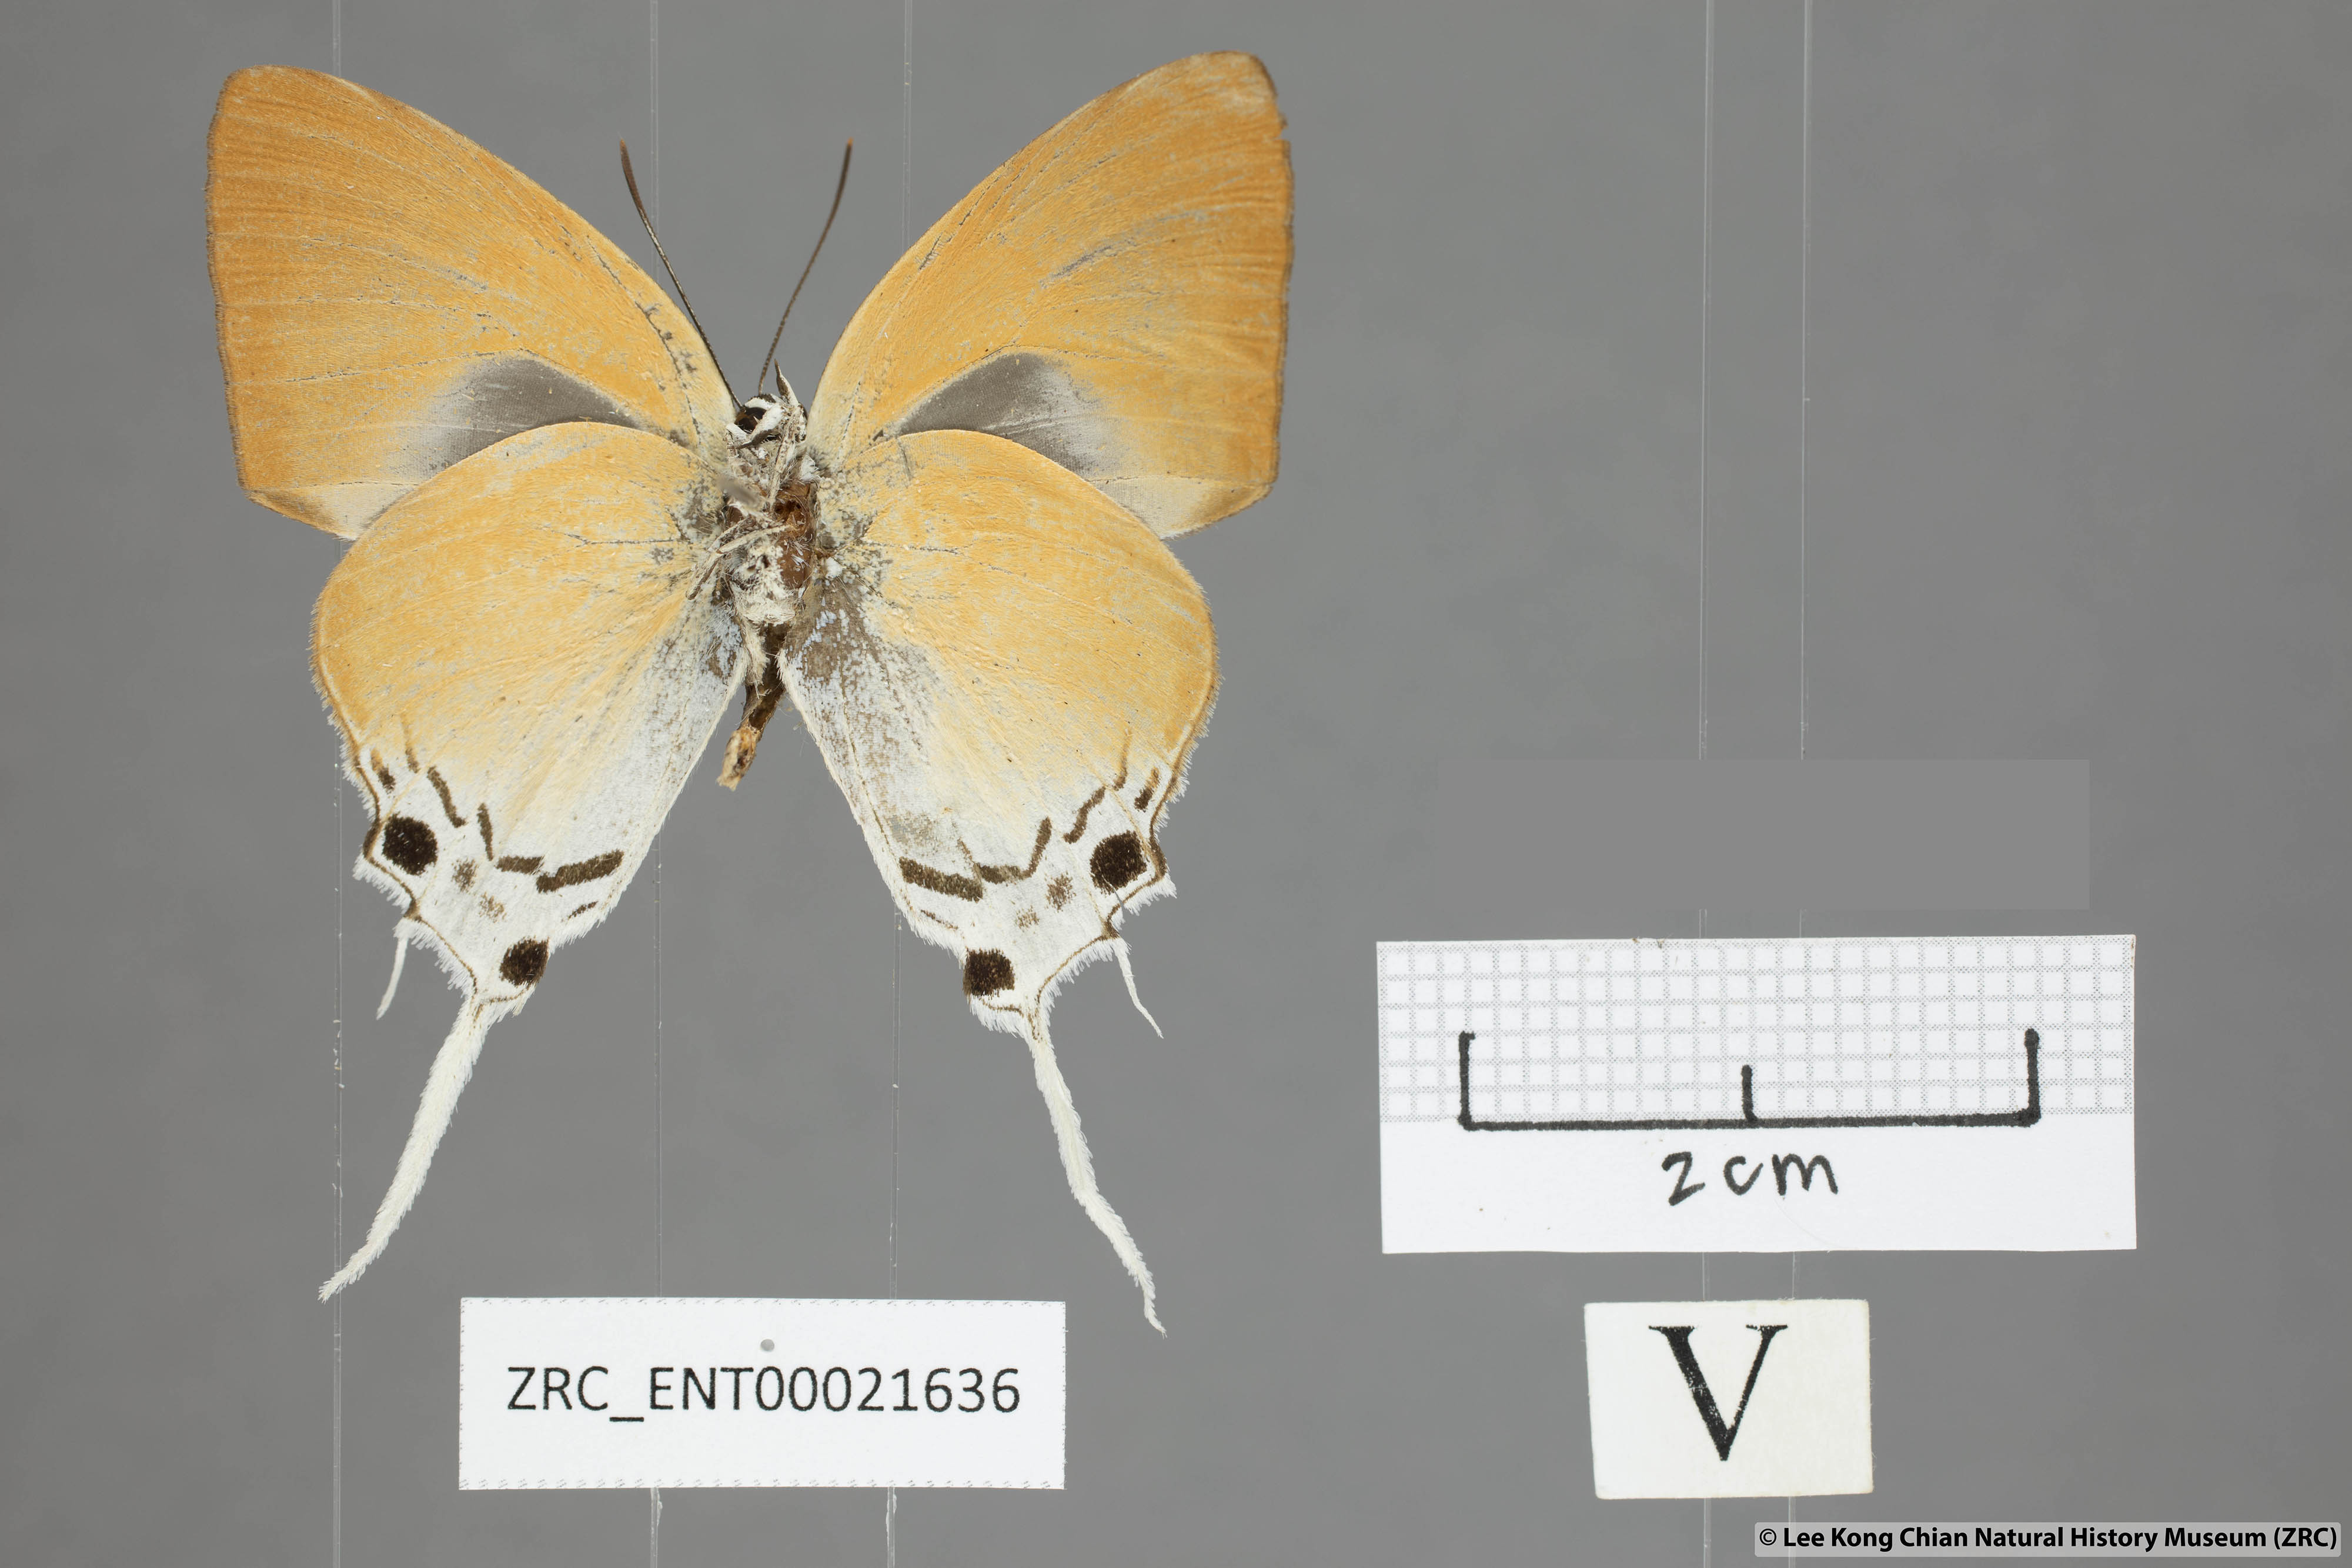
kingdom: Animalia
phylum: Arthropoda
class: Insecta
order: Lepidoptera
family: Lycaenidae
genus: Manto
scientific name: Manto hypoleuca
